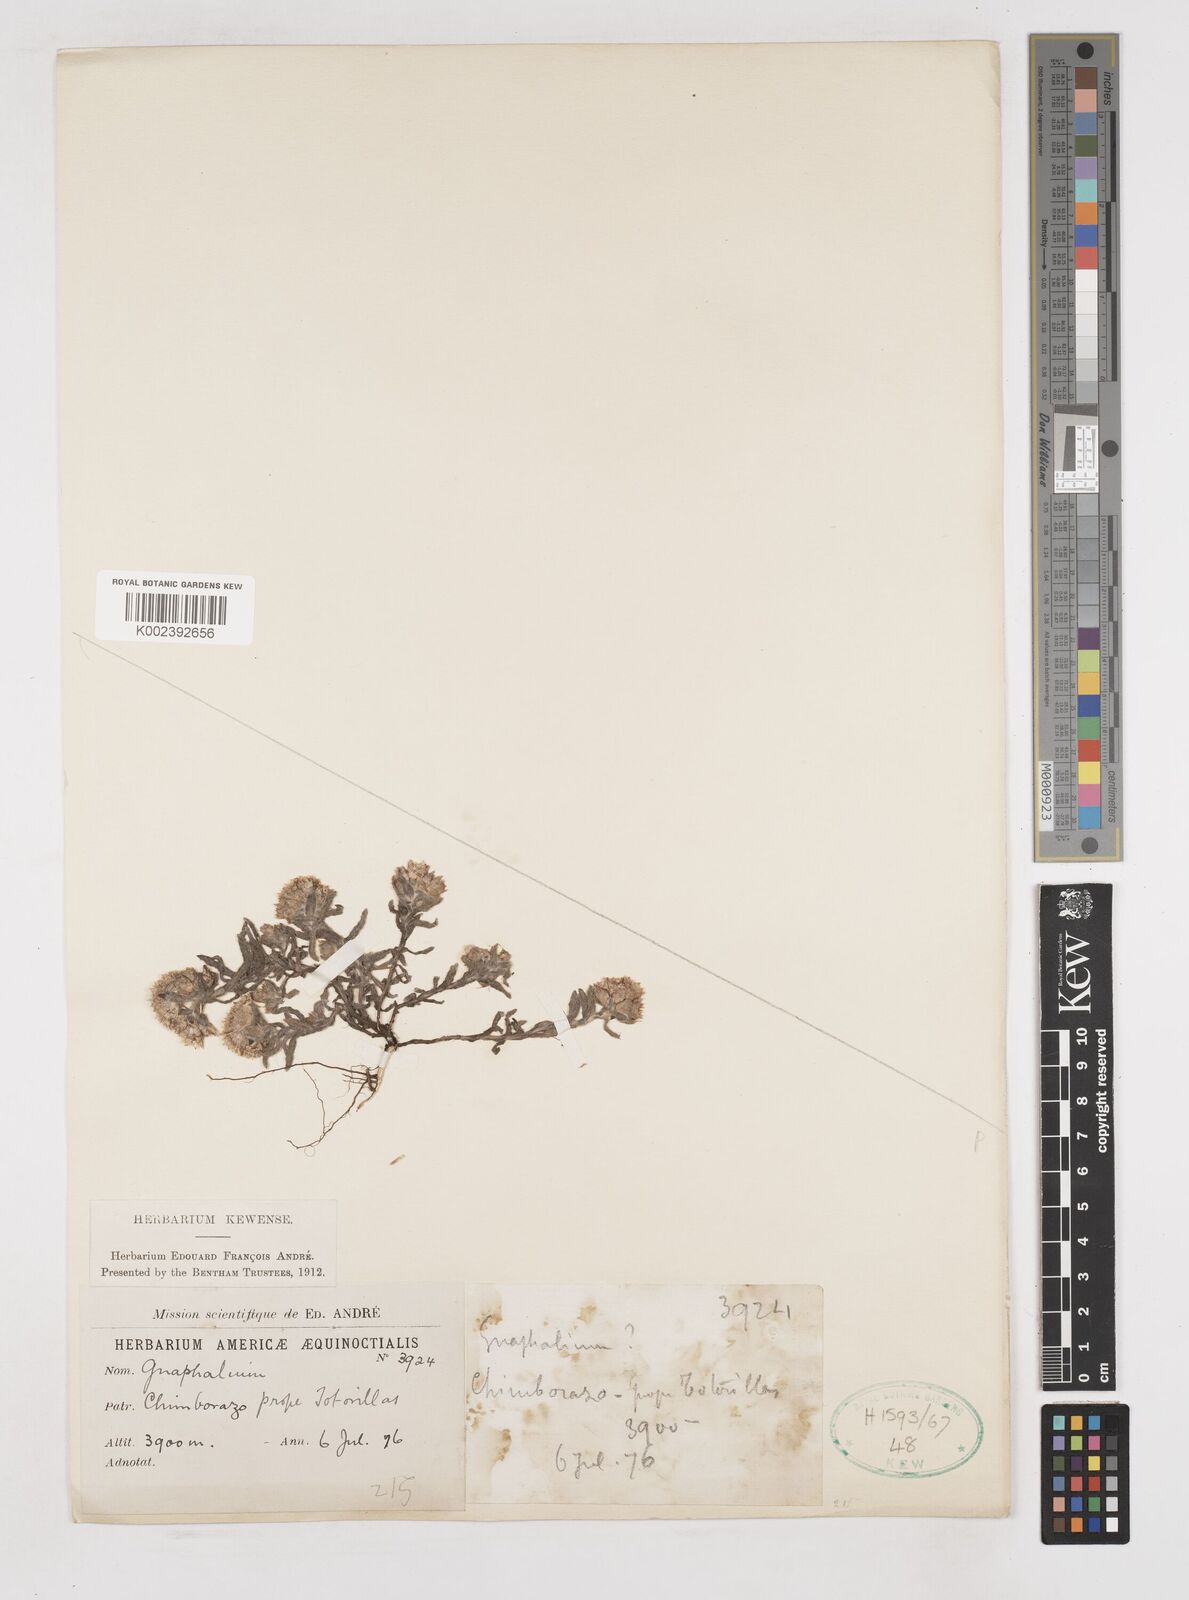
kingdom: Plantae
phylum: Tracheophyta
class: Magnoliopsida
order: Asterales
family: Asteraceae
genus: Gnaphalium
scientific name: Gnaphalium
